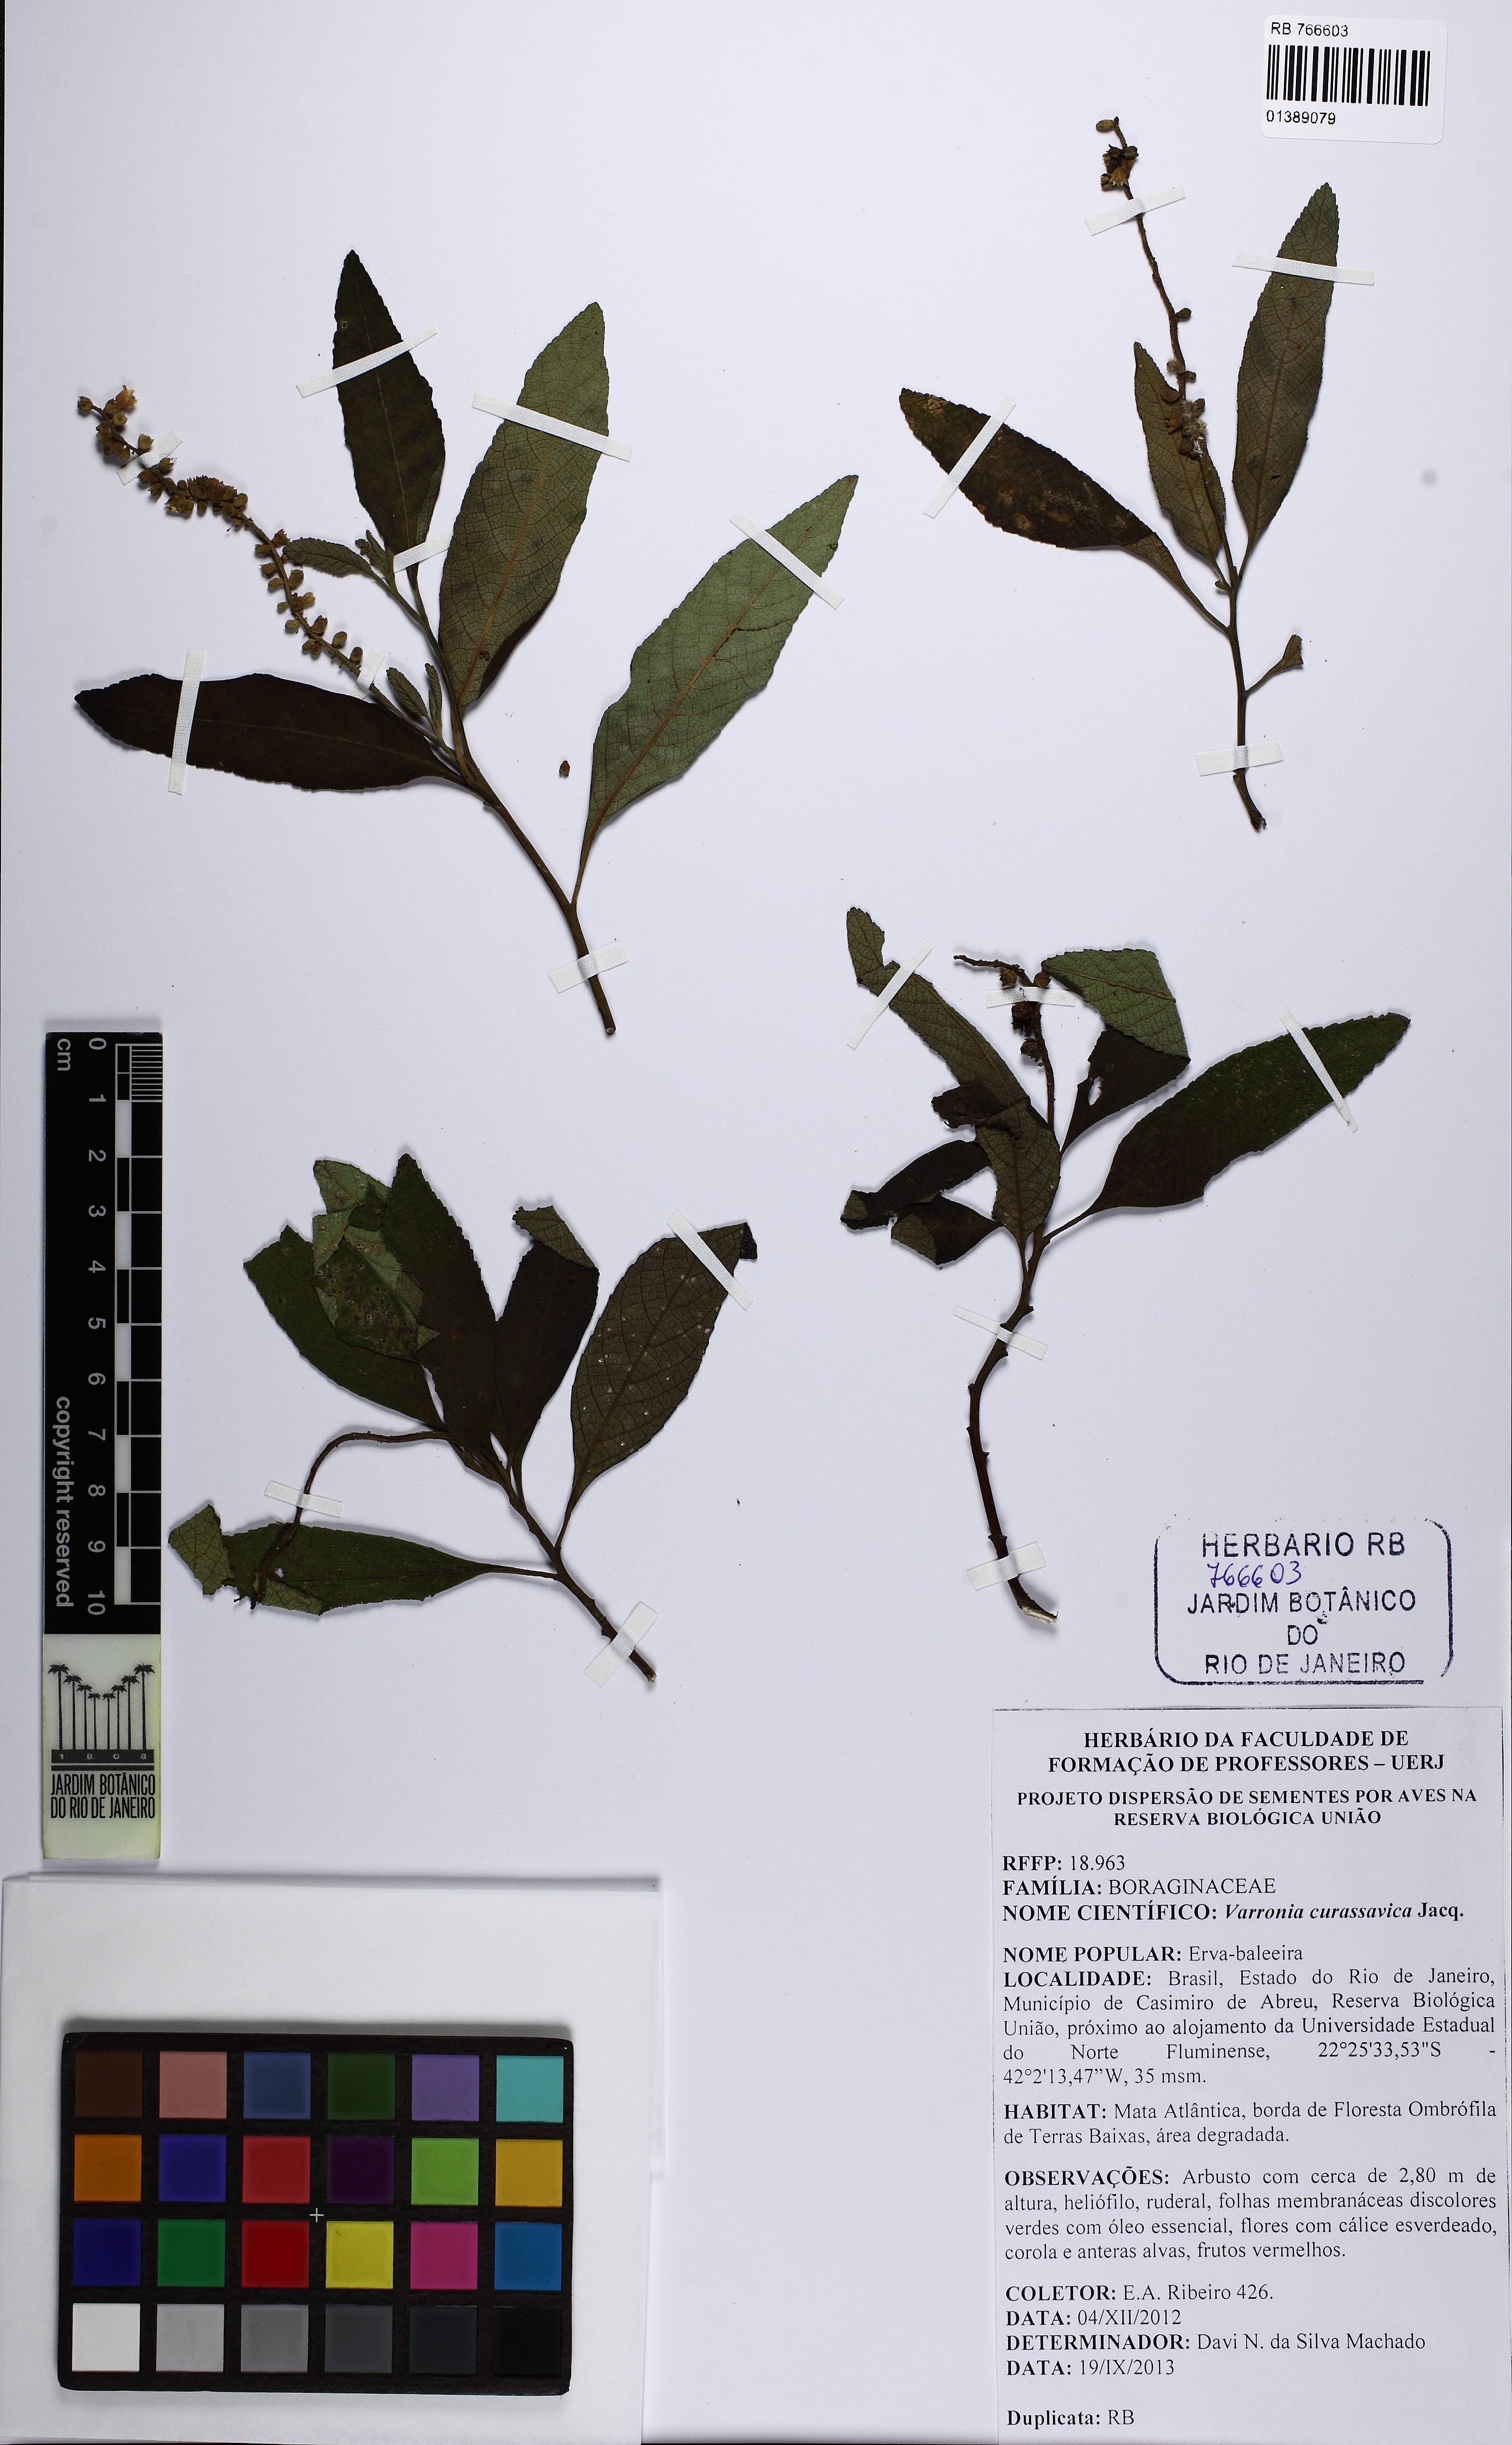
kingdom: Plantae
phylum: Tracheophyta
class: Magnoliopsida
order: Boraginales
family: Cordiaceae
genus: Varronia
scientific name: Varronia curassavica
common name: Black sage
